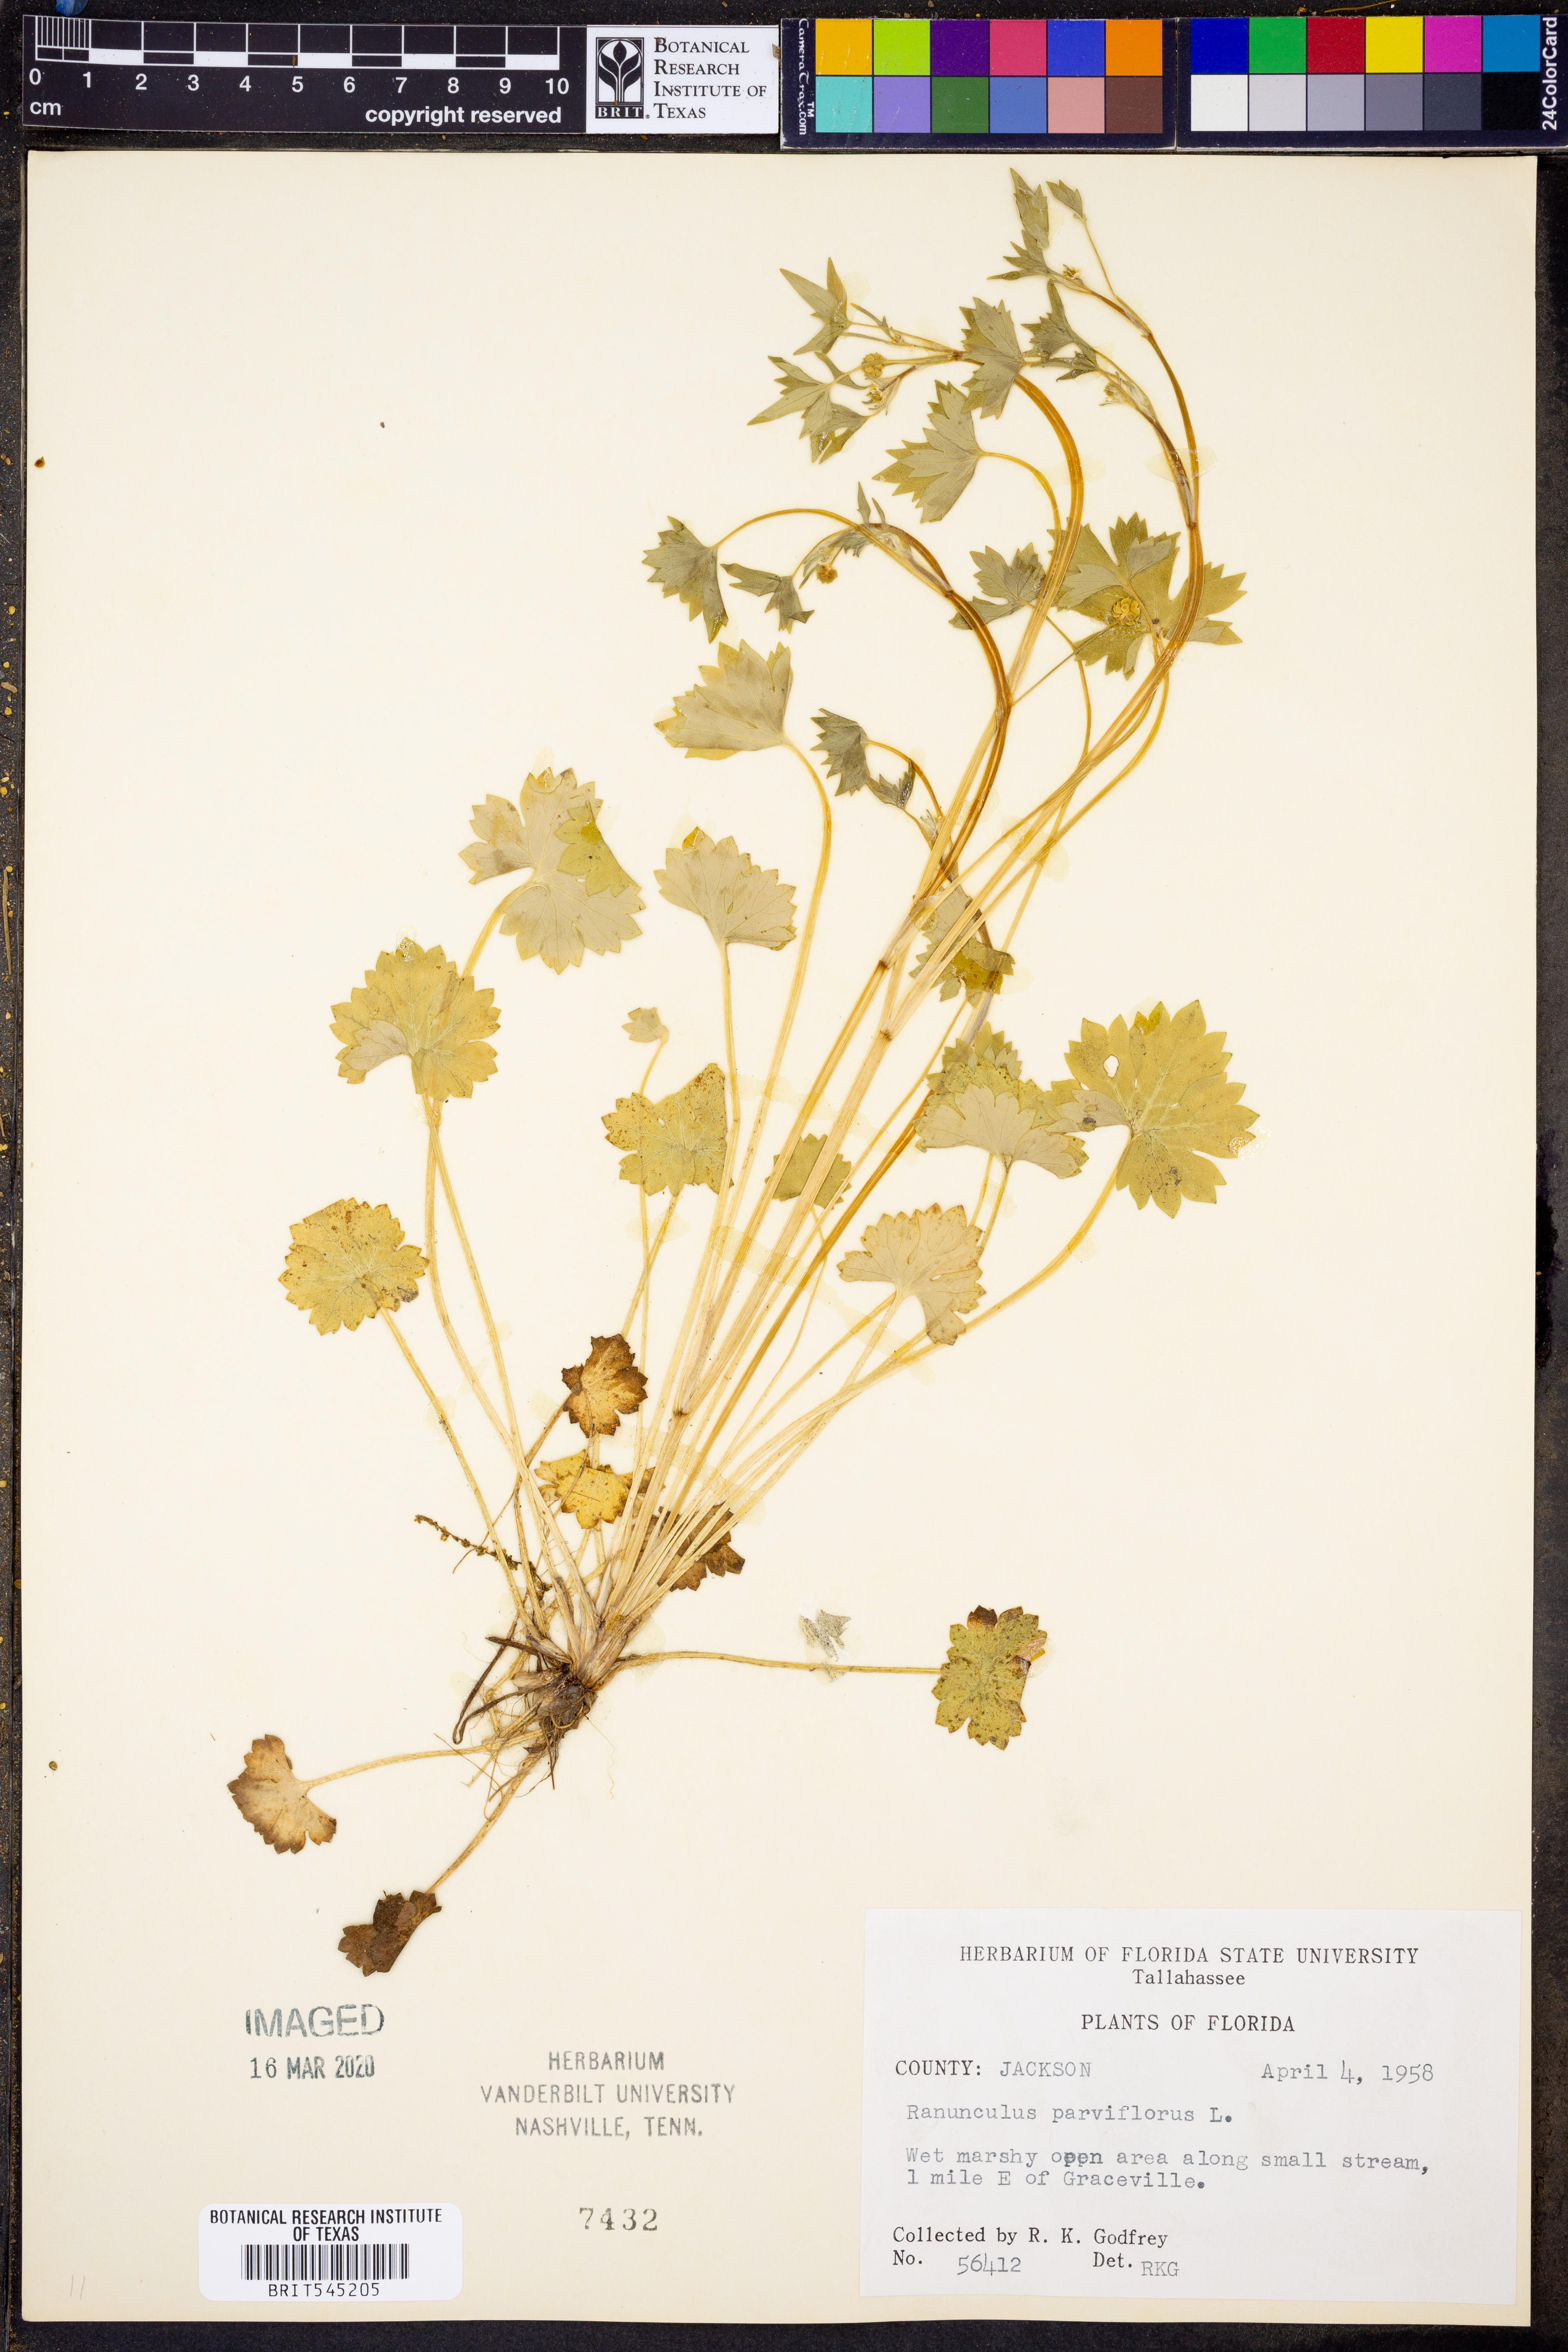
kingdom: Plantae
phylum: Tracheophyta
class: Magnoliopsida
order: Ranunculales
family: Ranunculaceae
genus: Ranunculus
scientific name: Ranunculus parviflorus
